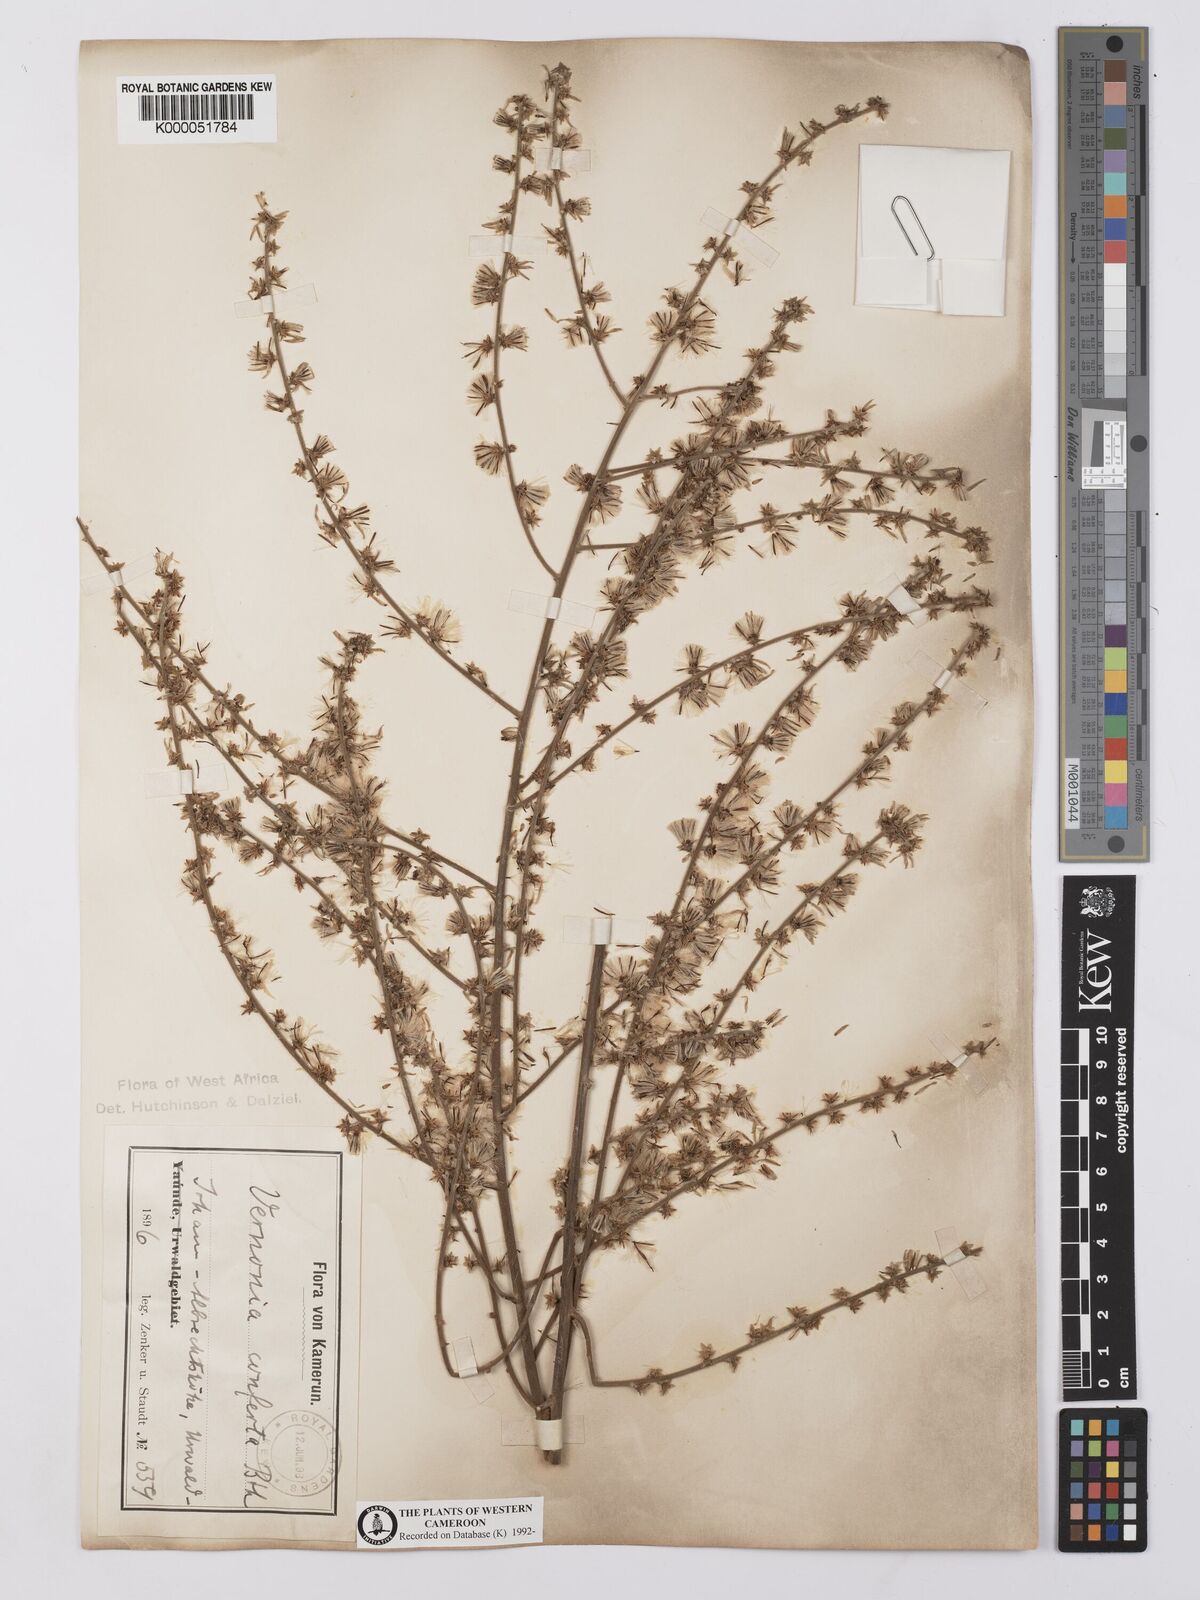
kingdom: Plantae
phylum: Tracheophyta
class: Magnoliopsida
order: Asterales
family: Asteraceae
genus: Brenandendron
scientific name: Brenandendron donianum
